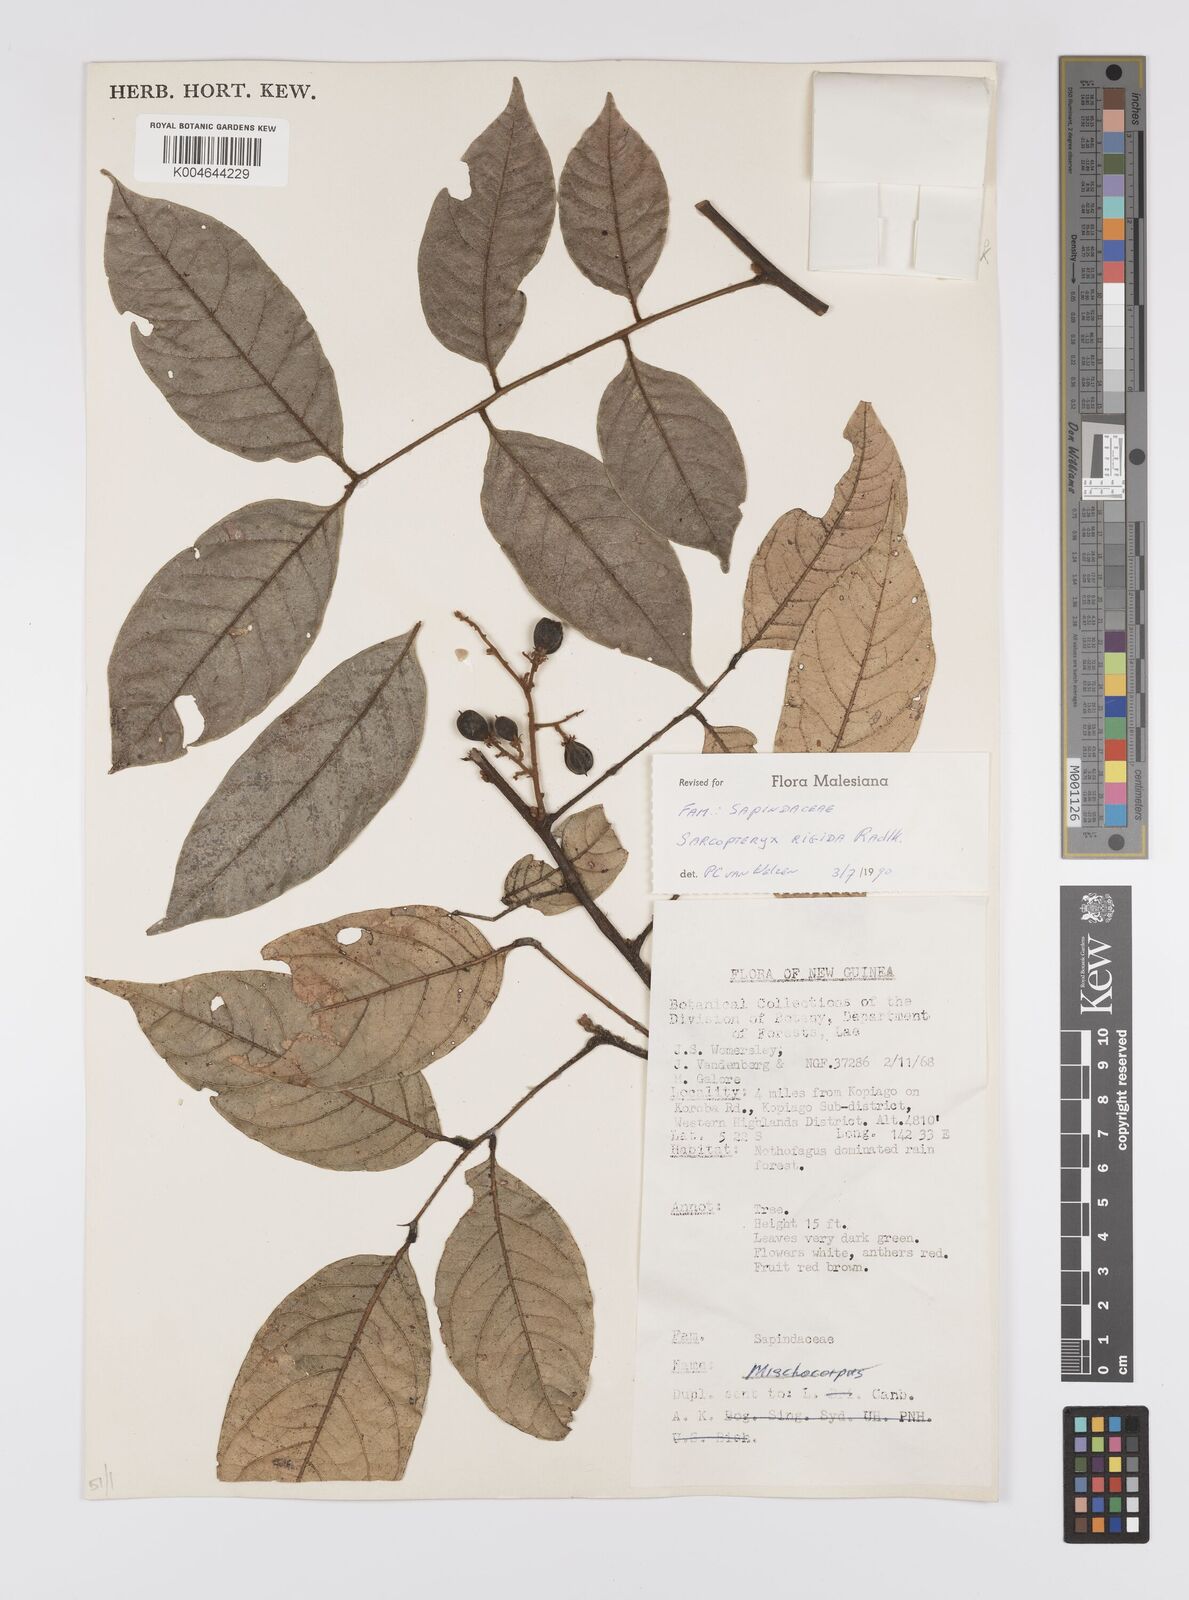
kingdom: Plantae
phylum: Tracheophyta
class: Magnoliopsida
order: Sapindales
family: Sapindaceae
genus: Sarcopteryx
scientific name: Sarcopteryx rigida
